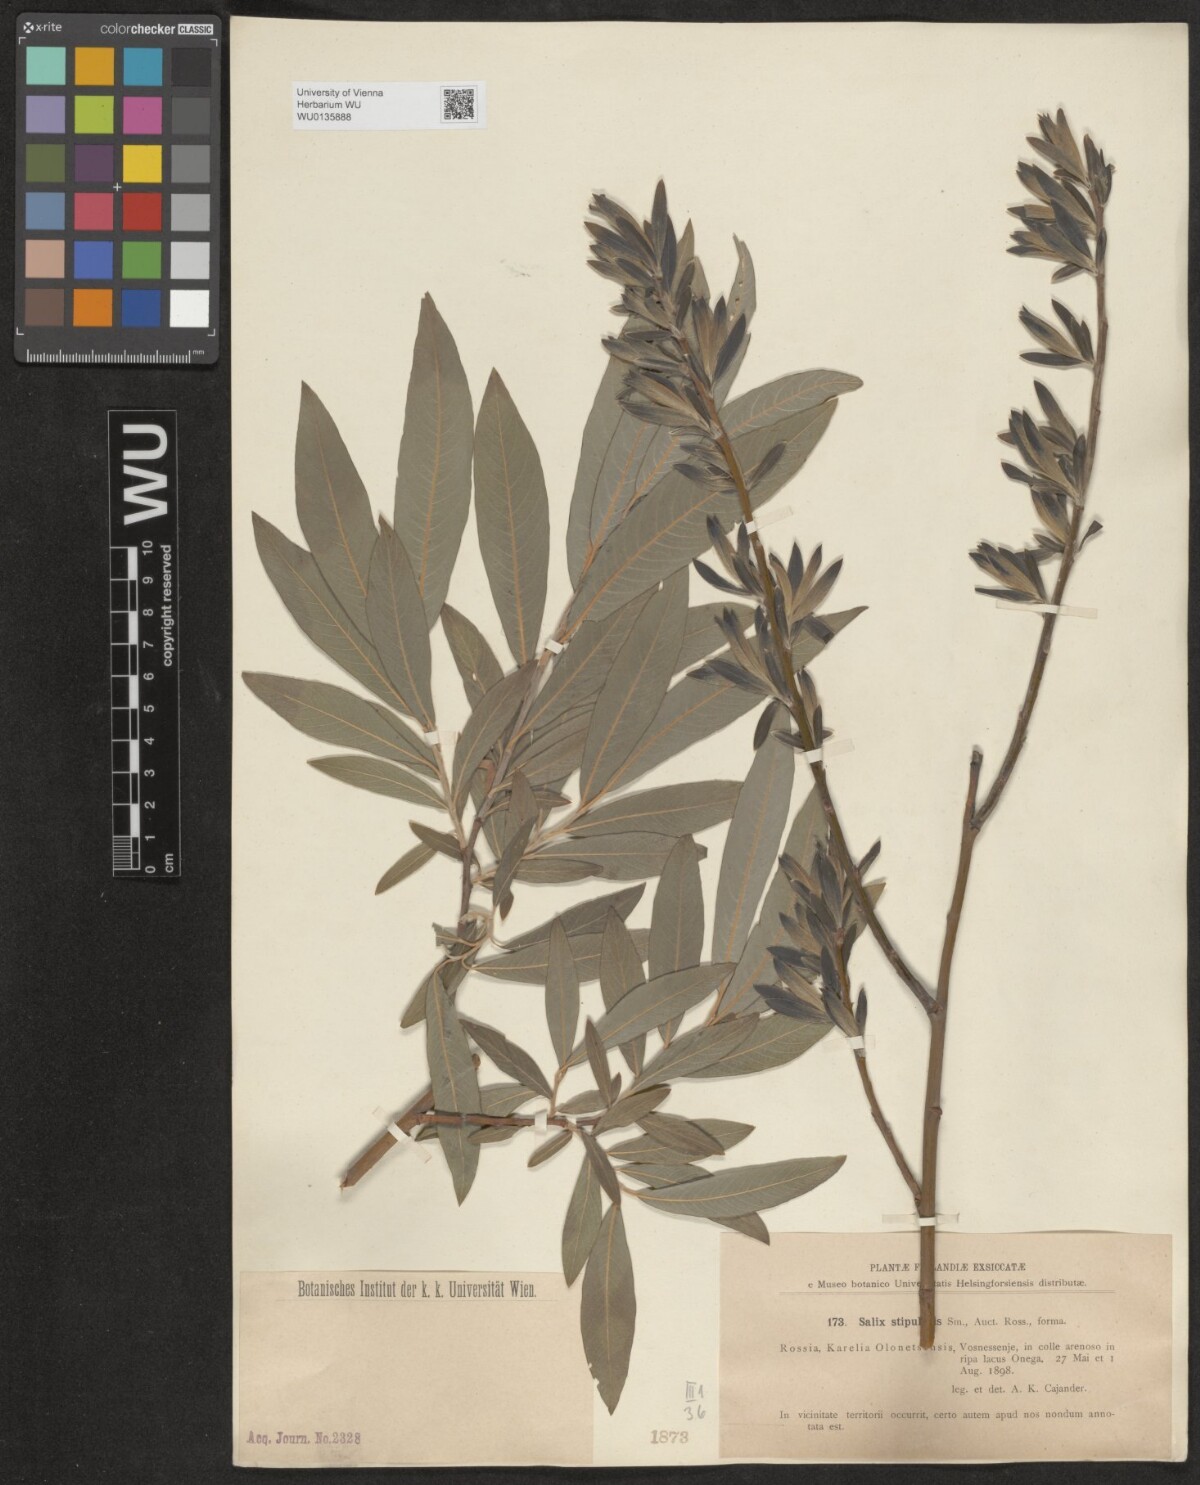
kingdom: Plantae
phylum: Tracheophyta
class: Magnoliopsida
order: Malpighiales
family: Salicaceae
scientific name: Salicaceae
